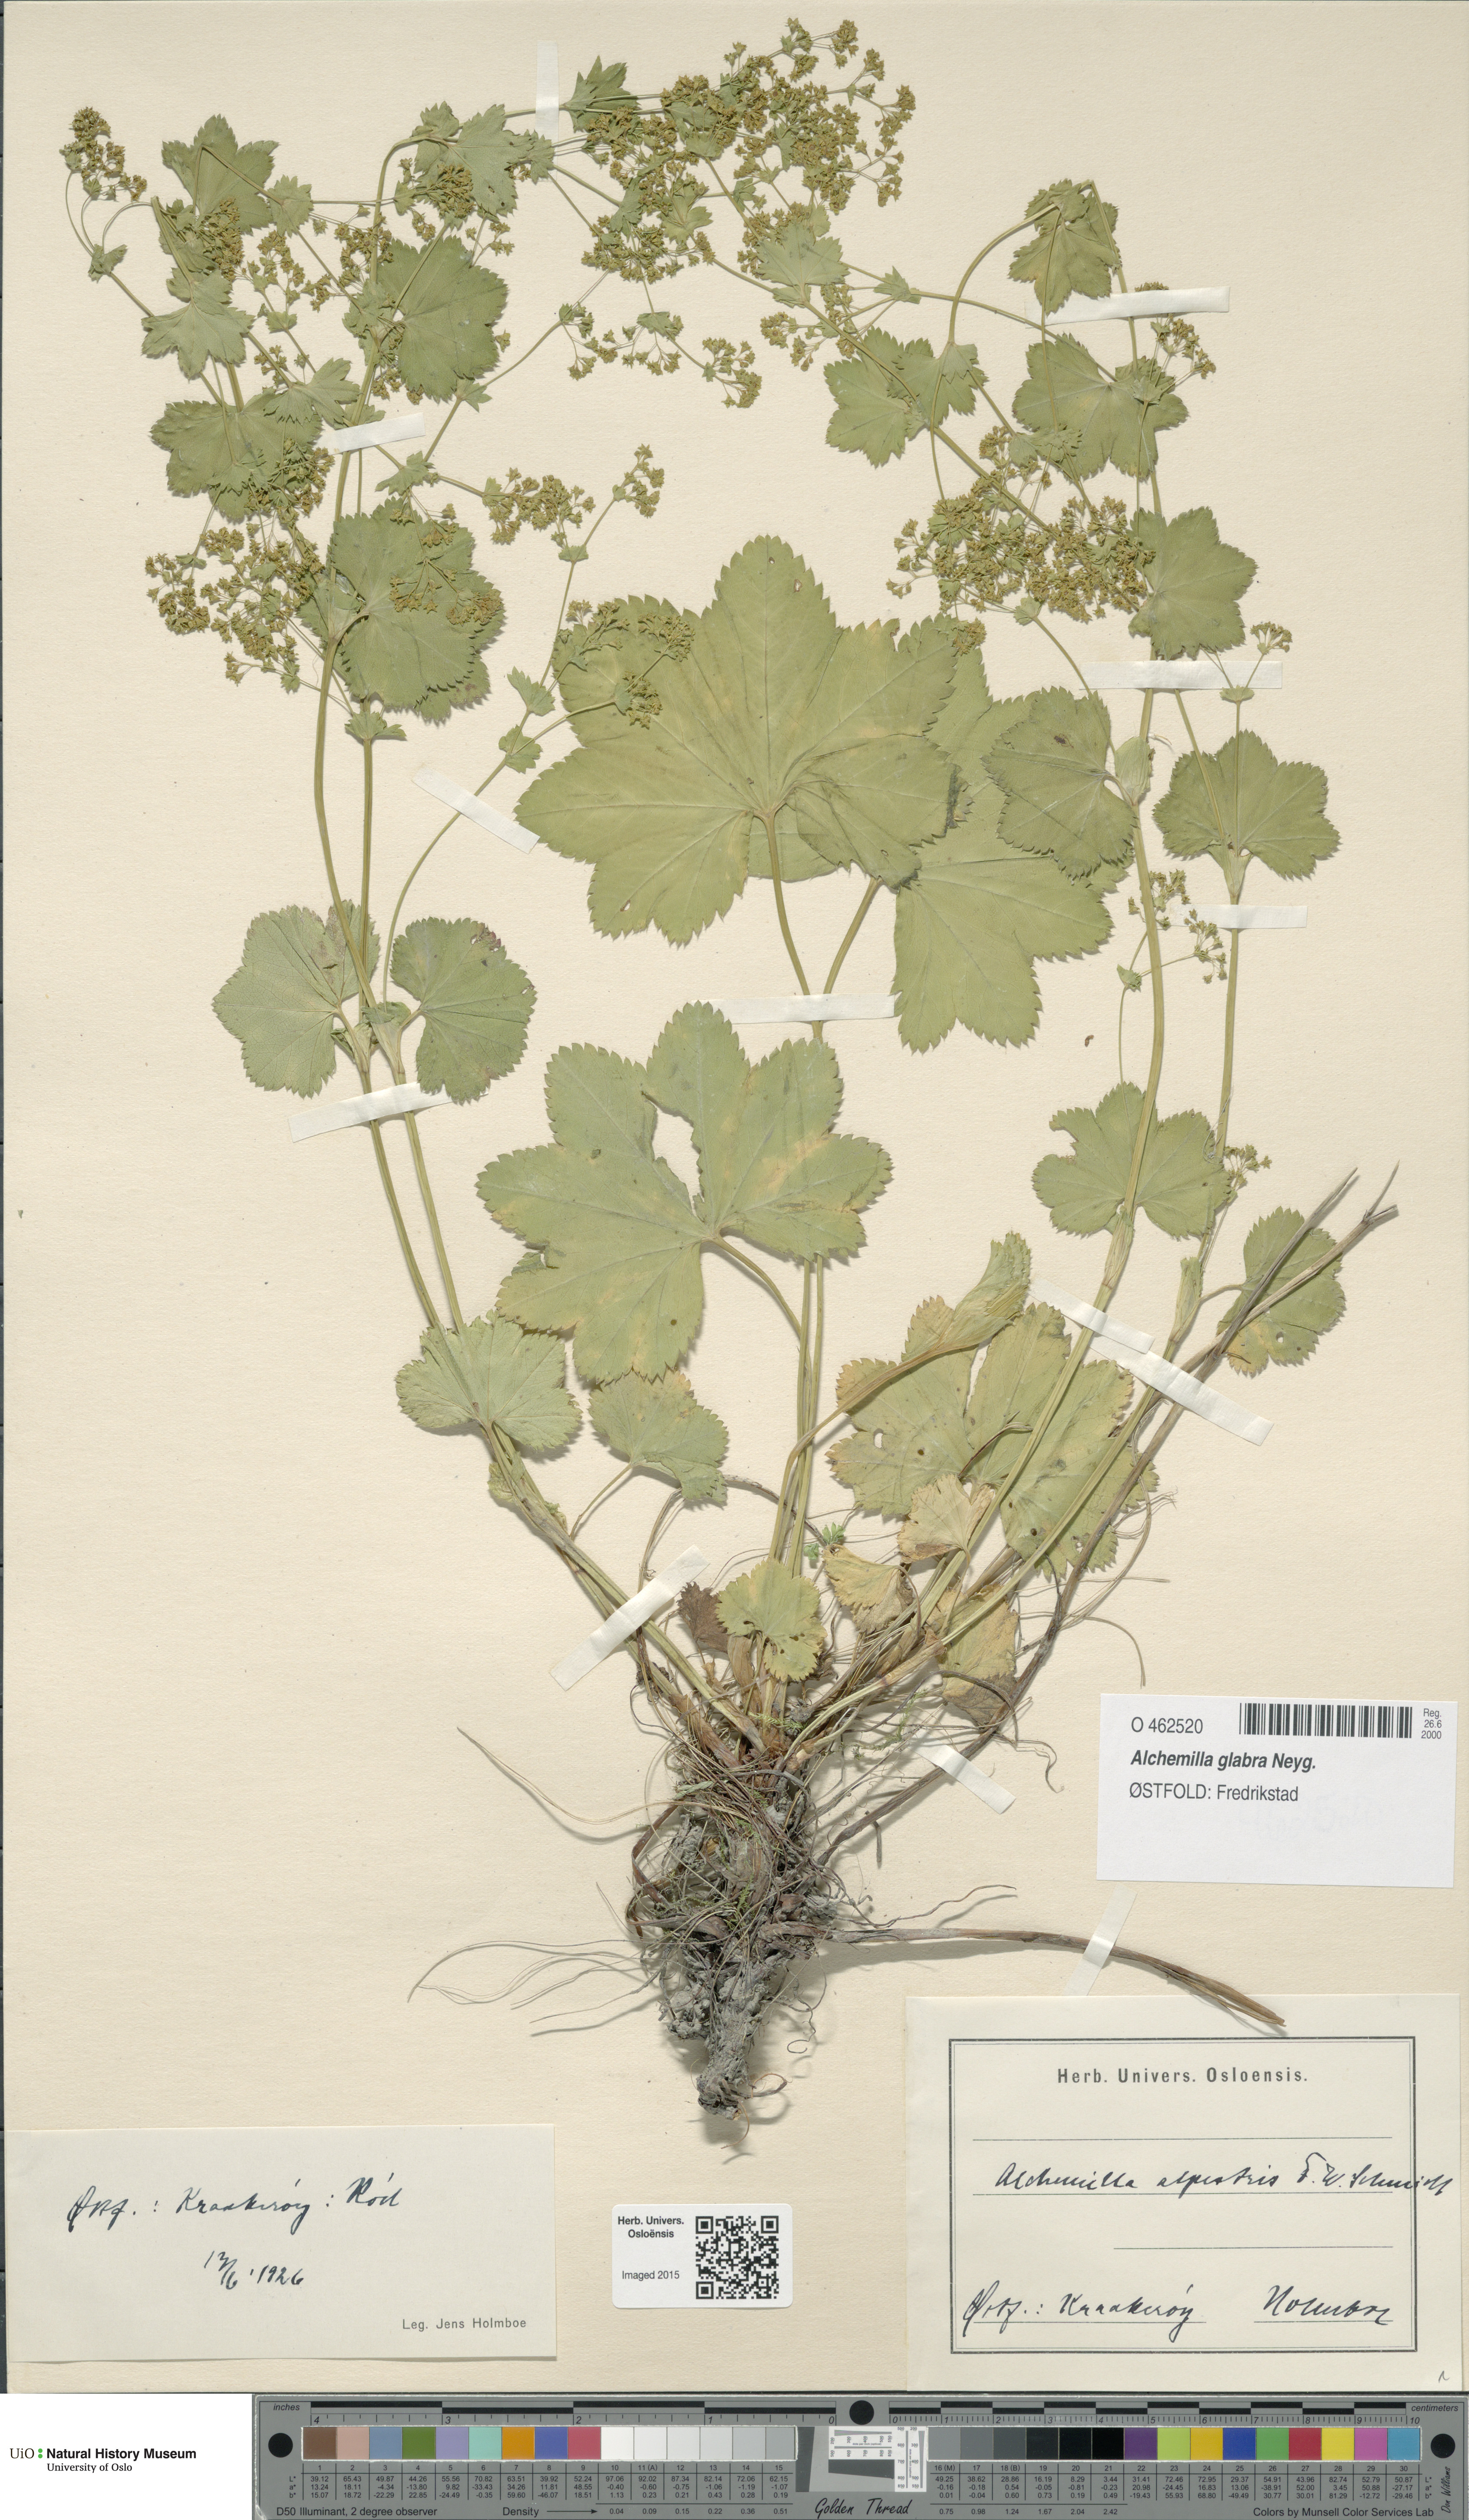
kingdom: Plantae
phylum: Tracheophyta
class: Magnoliopsida
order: Rosales
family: Rosaceae
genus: Alchemilla
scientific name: Alchemilla glabra
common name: Smooth lady's-mantle
